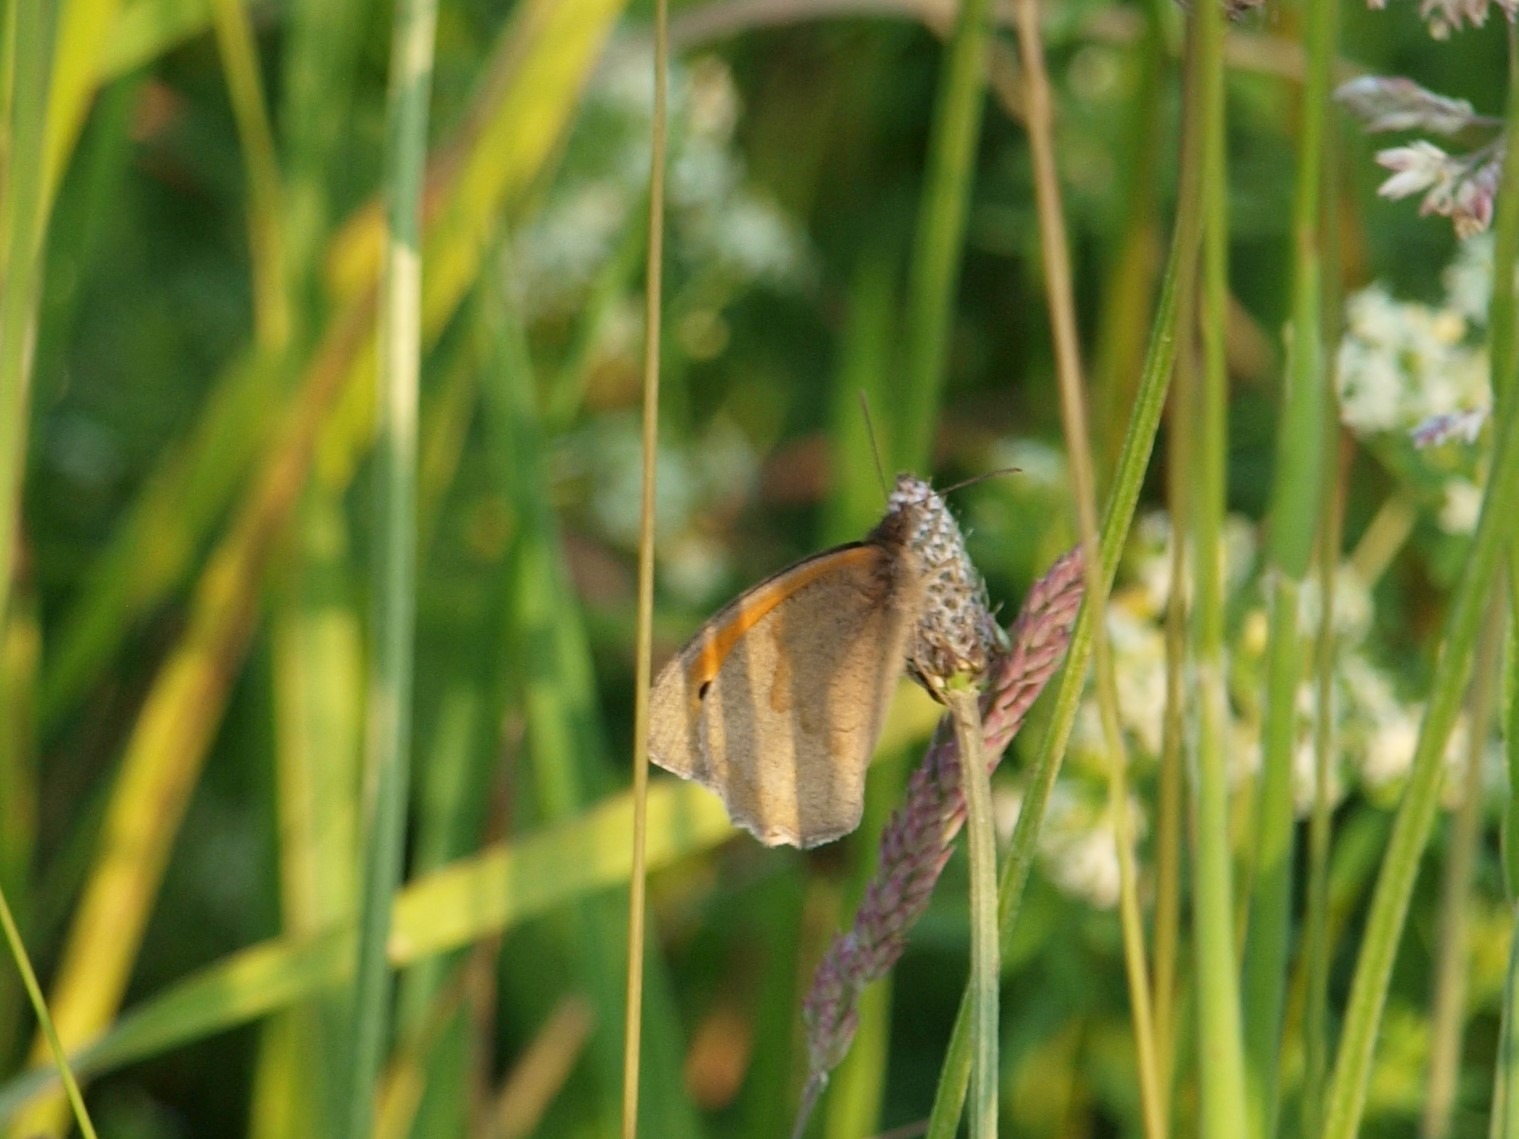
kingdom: Animalia
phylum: Arthropoda
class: Insecta
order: Lepidoptera
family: Nymphalidae
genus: Maniola
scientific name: Maniola jurtina
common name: Græsrandøje
